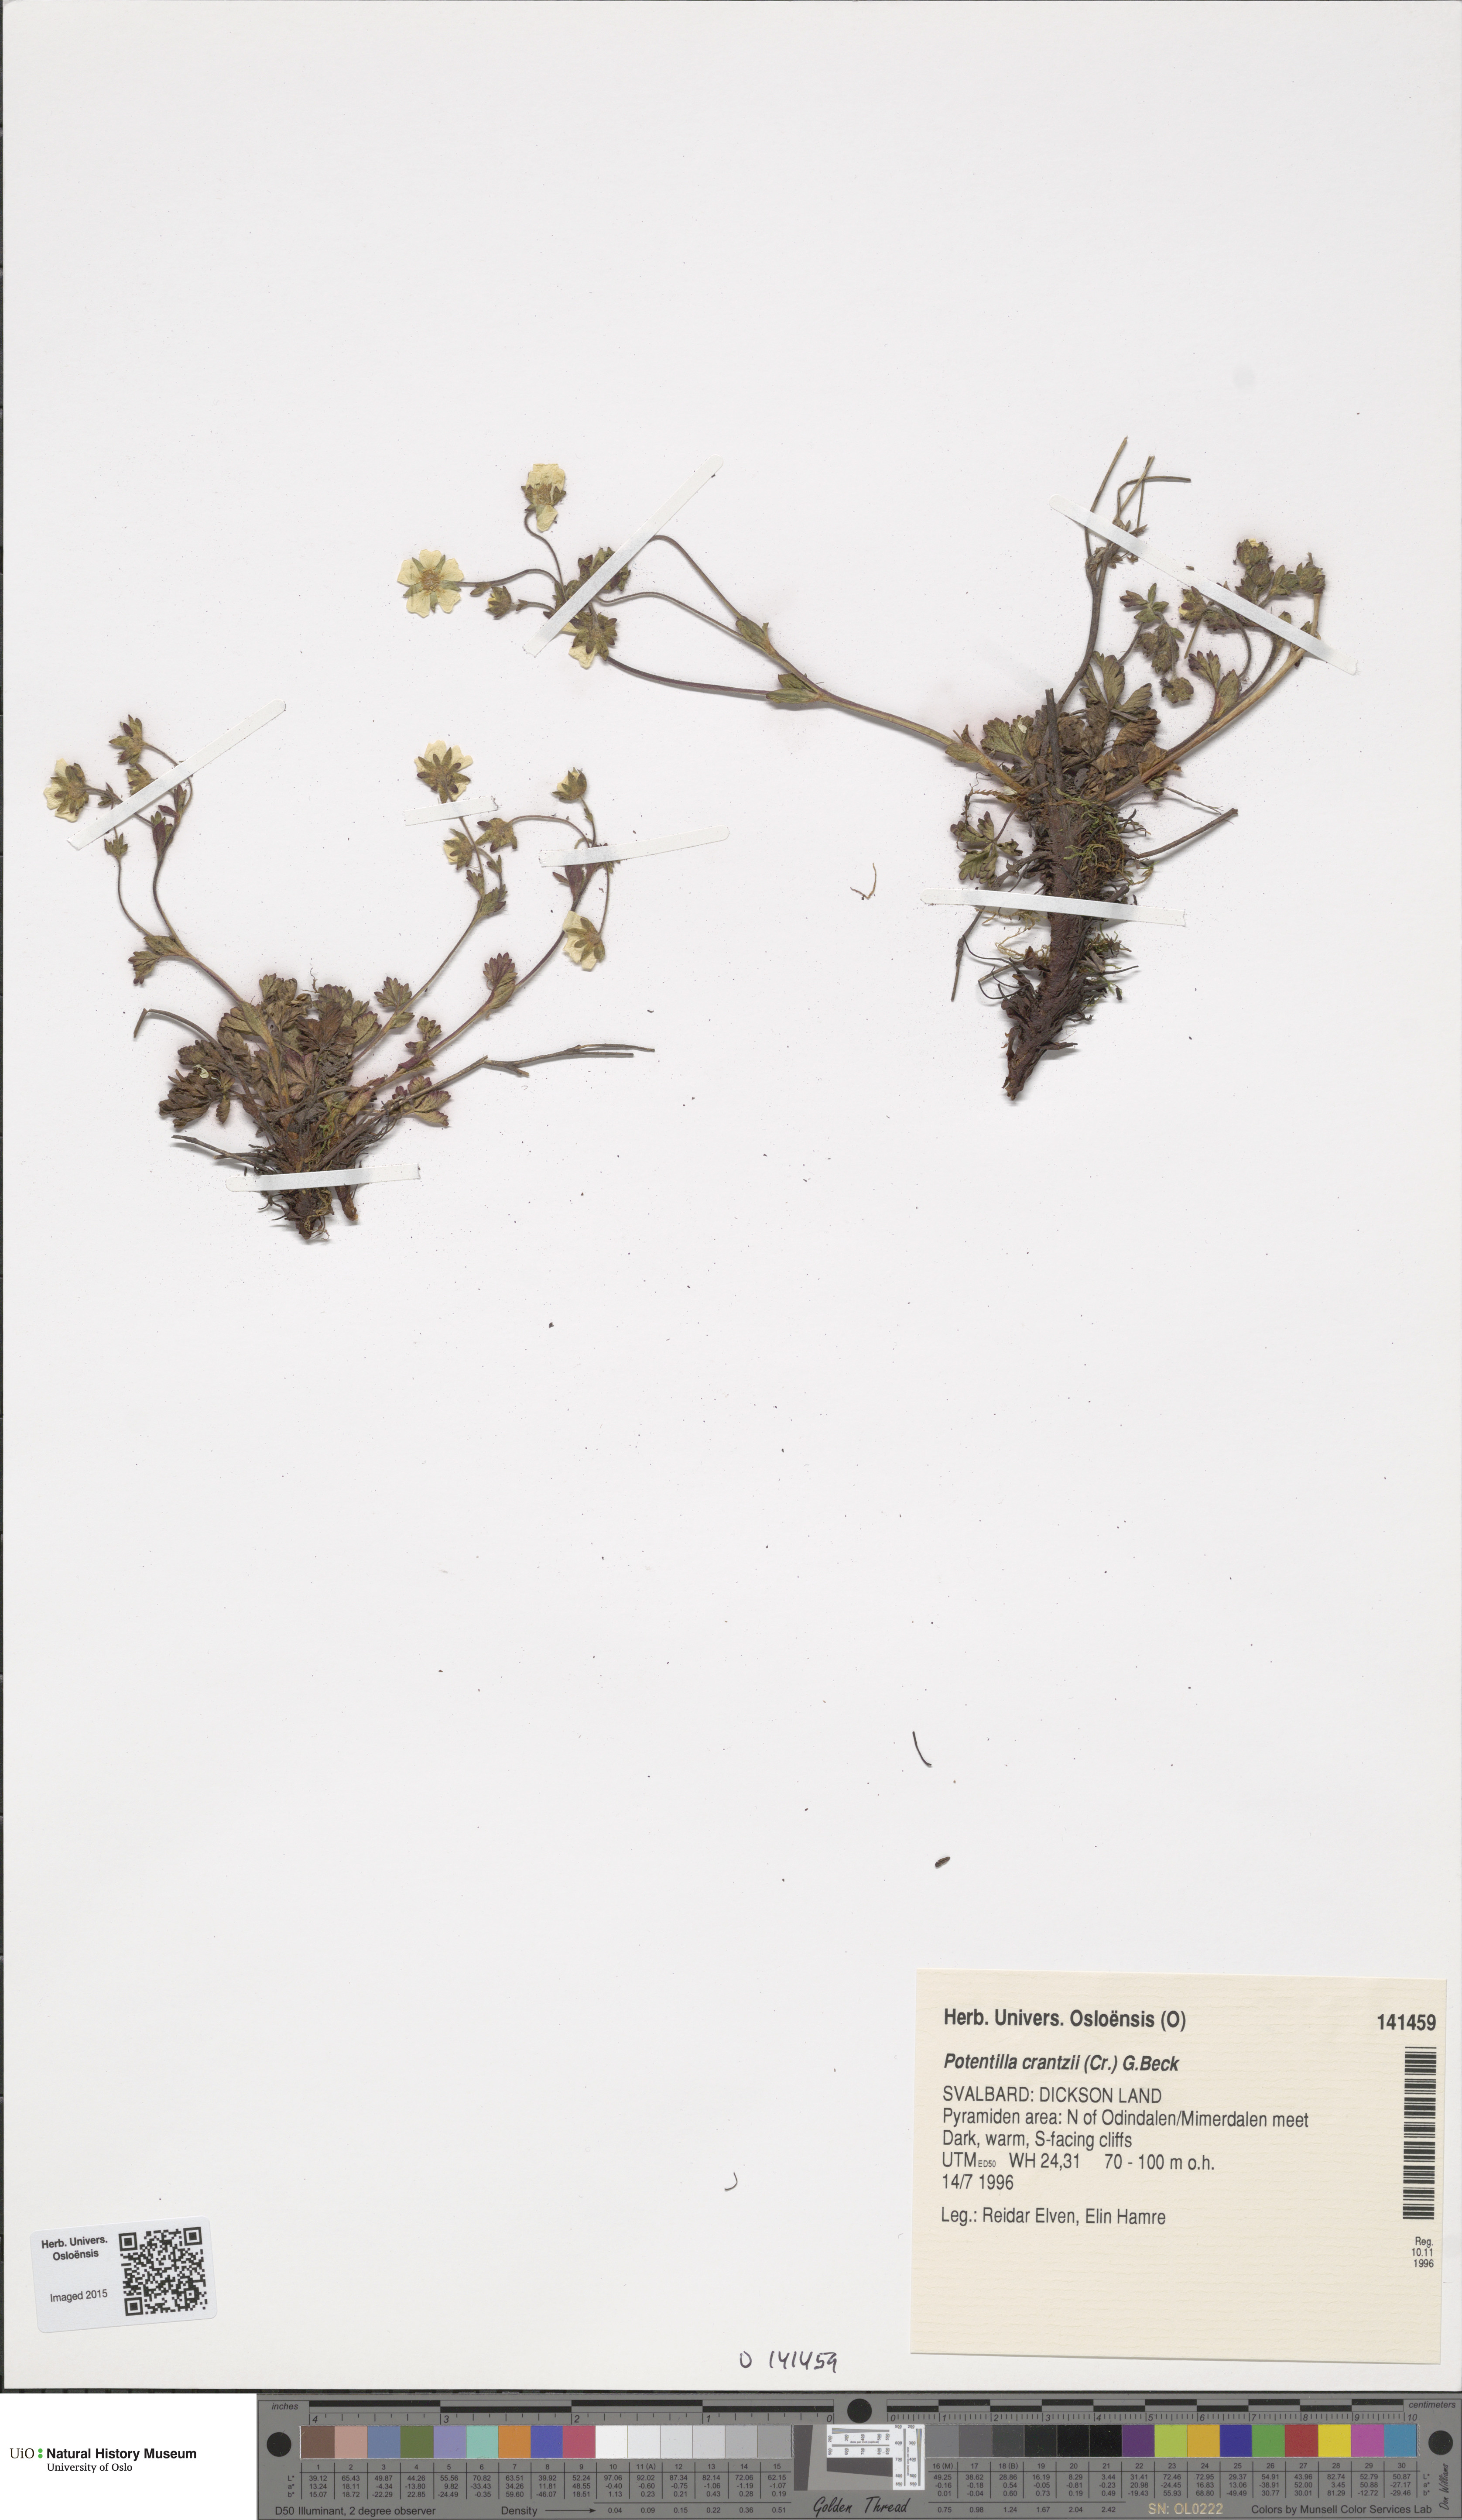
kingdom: Plantae
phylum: Tracheophyta
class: Magnoliopsida
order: Rosales
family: Rosaceae
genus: Potentilla
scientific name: Potentilla crantzii
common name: Alpine cinquefoil
